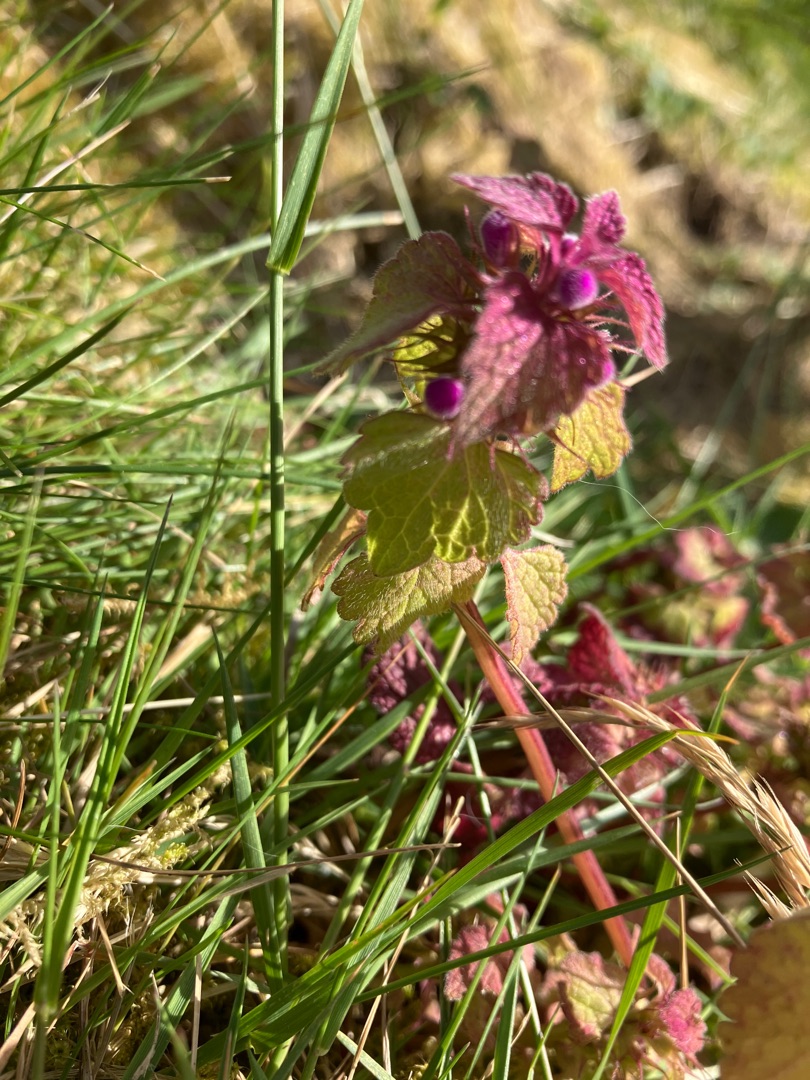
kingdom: Plantae
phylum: Tracheophyta
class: Magnoliopsida
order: Lamiales
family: Lamiaceae
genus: Lamium
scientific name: Lamium purpureum
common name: Rød tvetand
